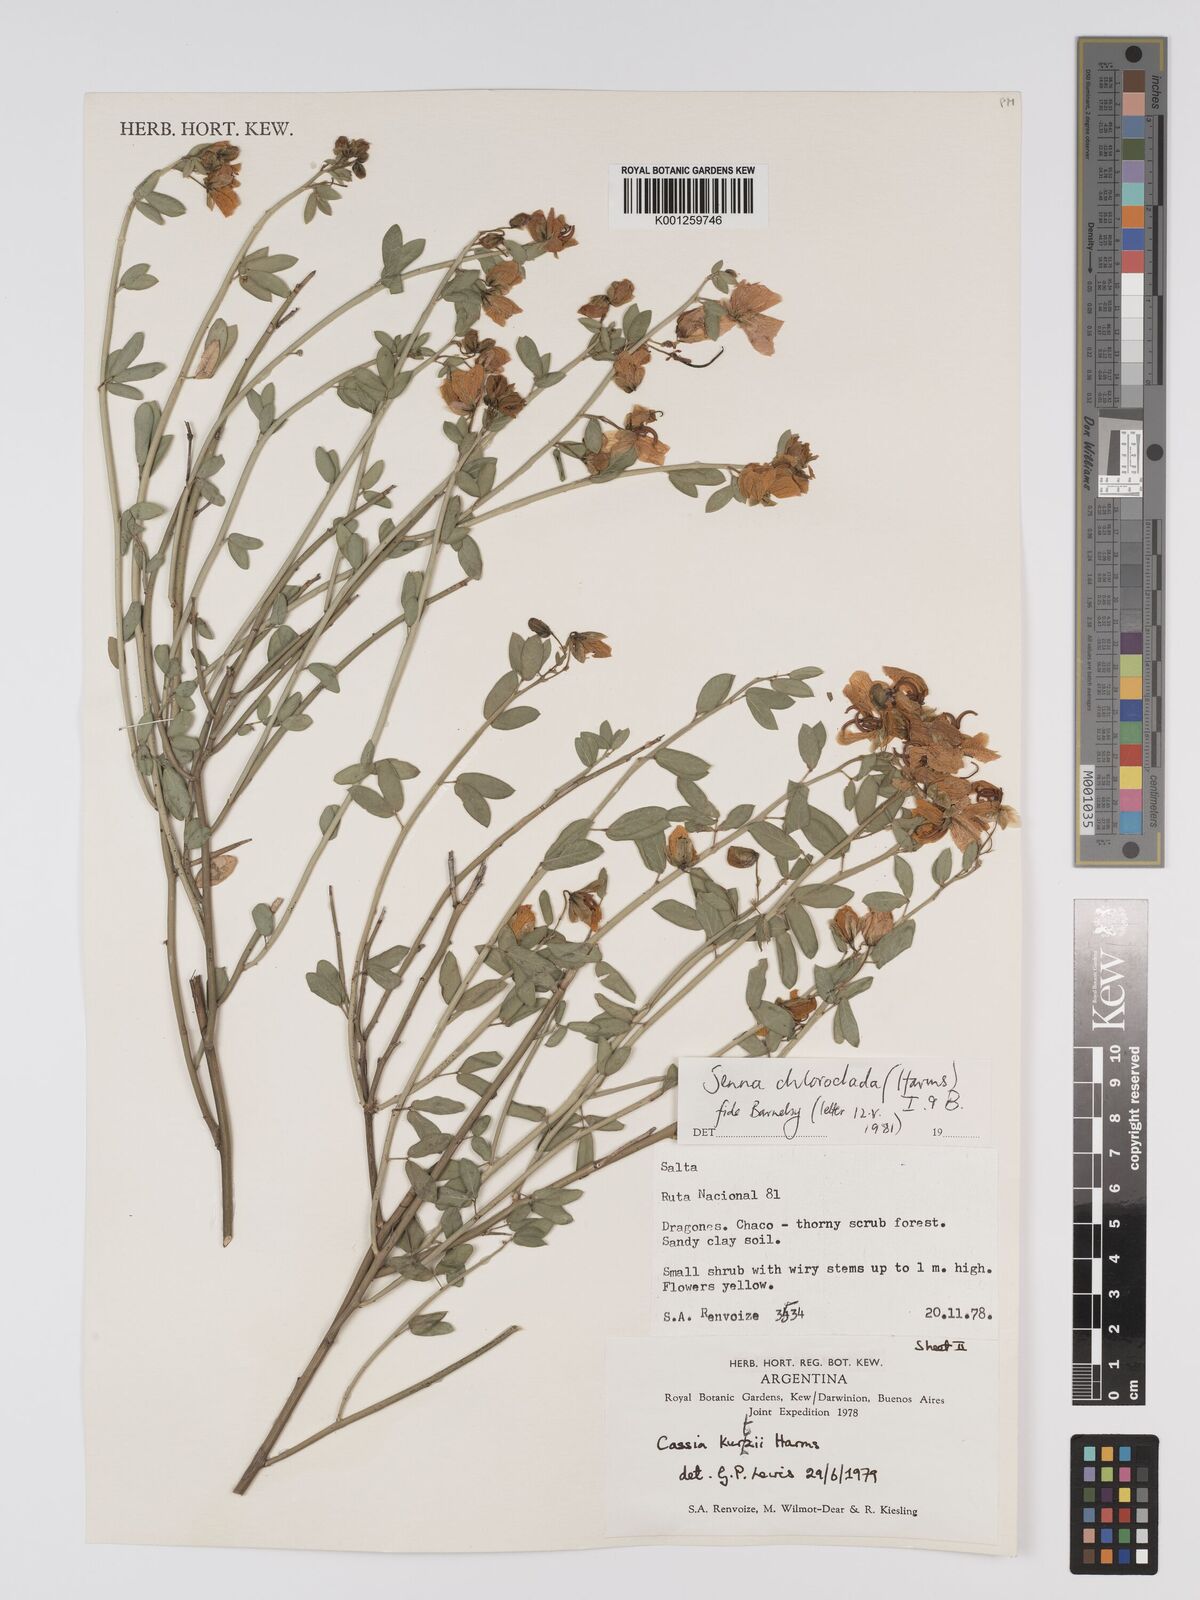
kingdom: Plantae
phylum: Tracheophyta
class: Magnoliopsida
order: Fabales
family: Fabaceae
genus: Senna
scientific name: Senna chloroclada
